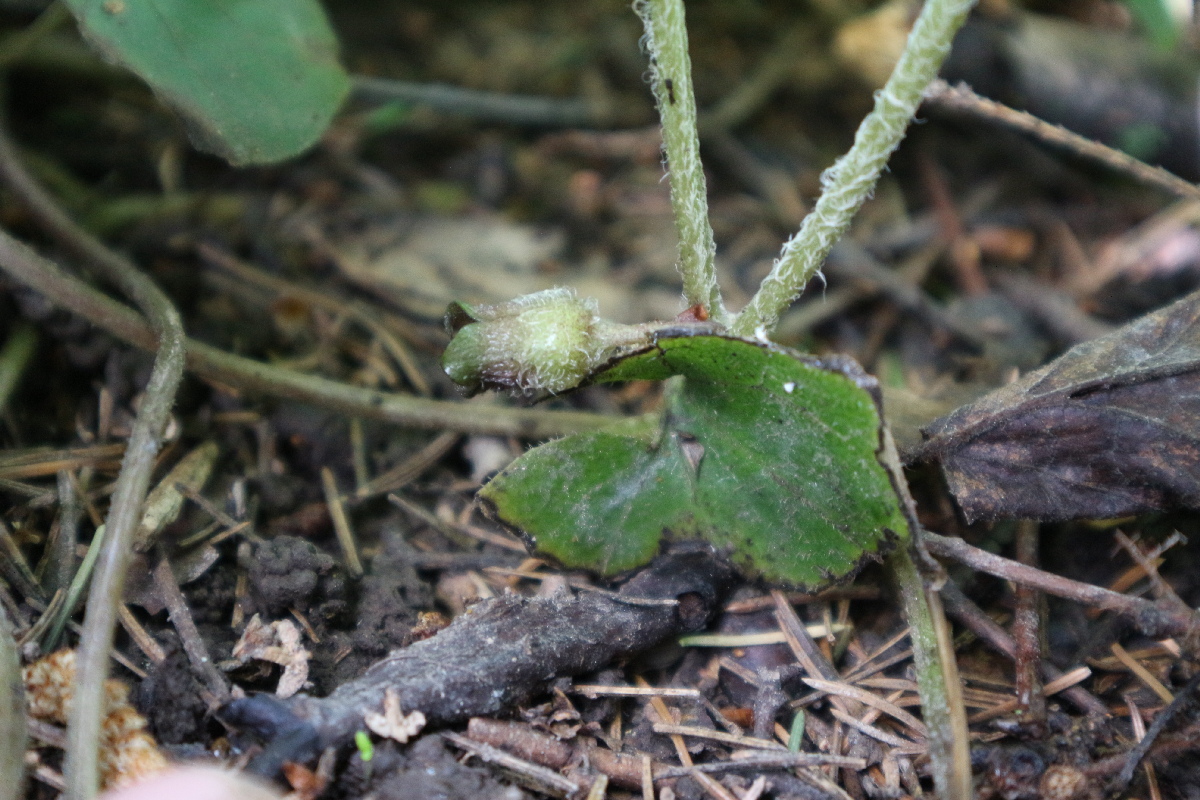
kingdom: Plantae
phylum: Tracheophyta
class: Magnoliopsida
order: Piperales
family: Aristolochiaceae
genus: Asarum
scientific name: Asarum europaeum
